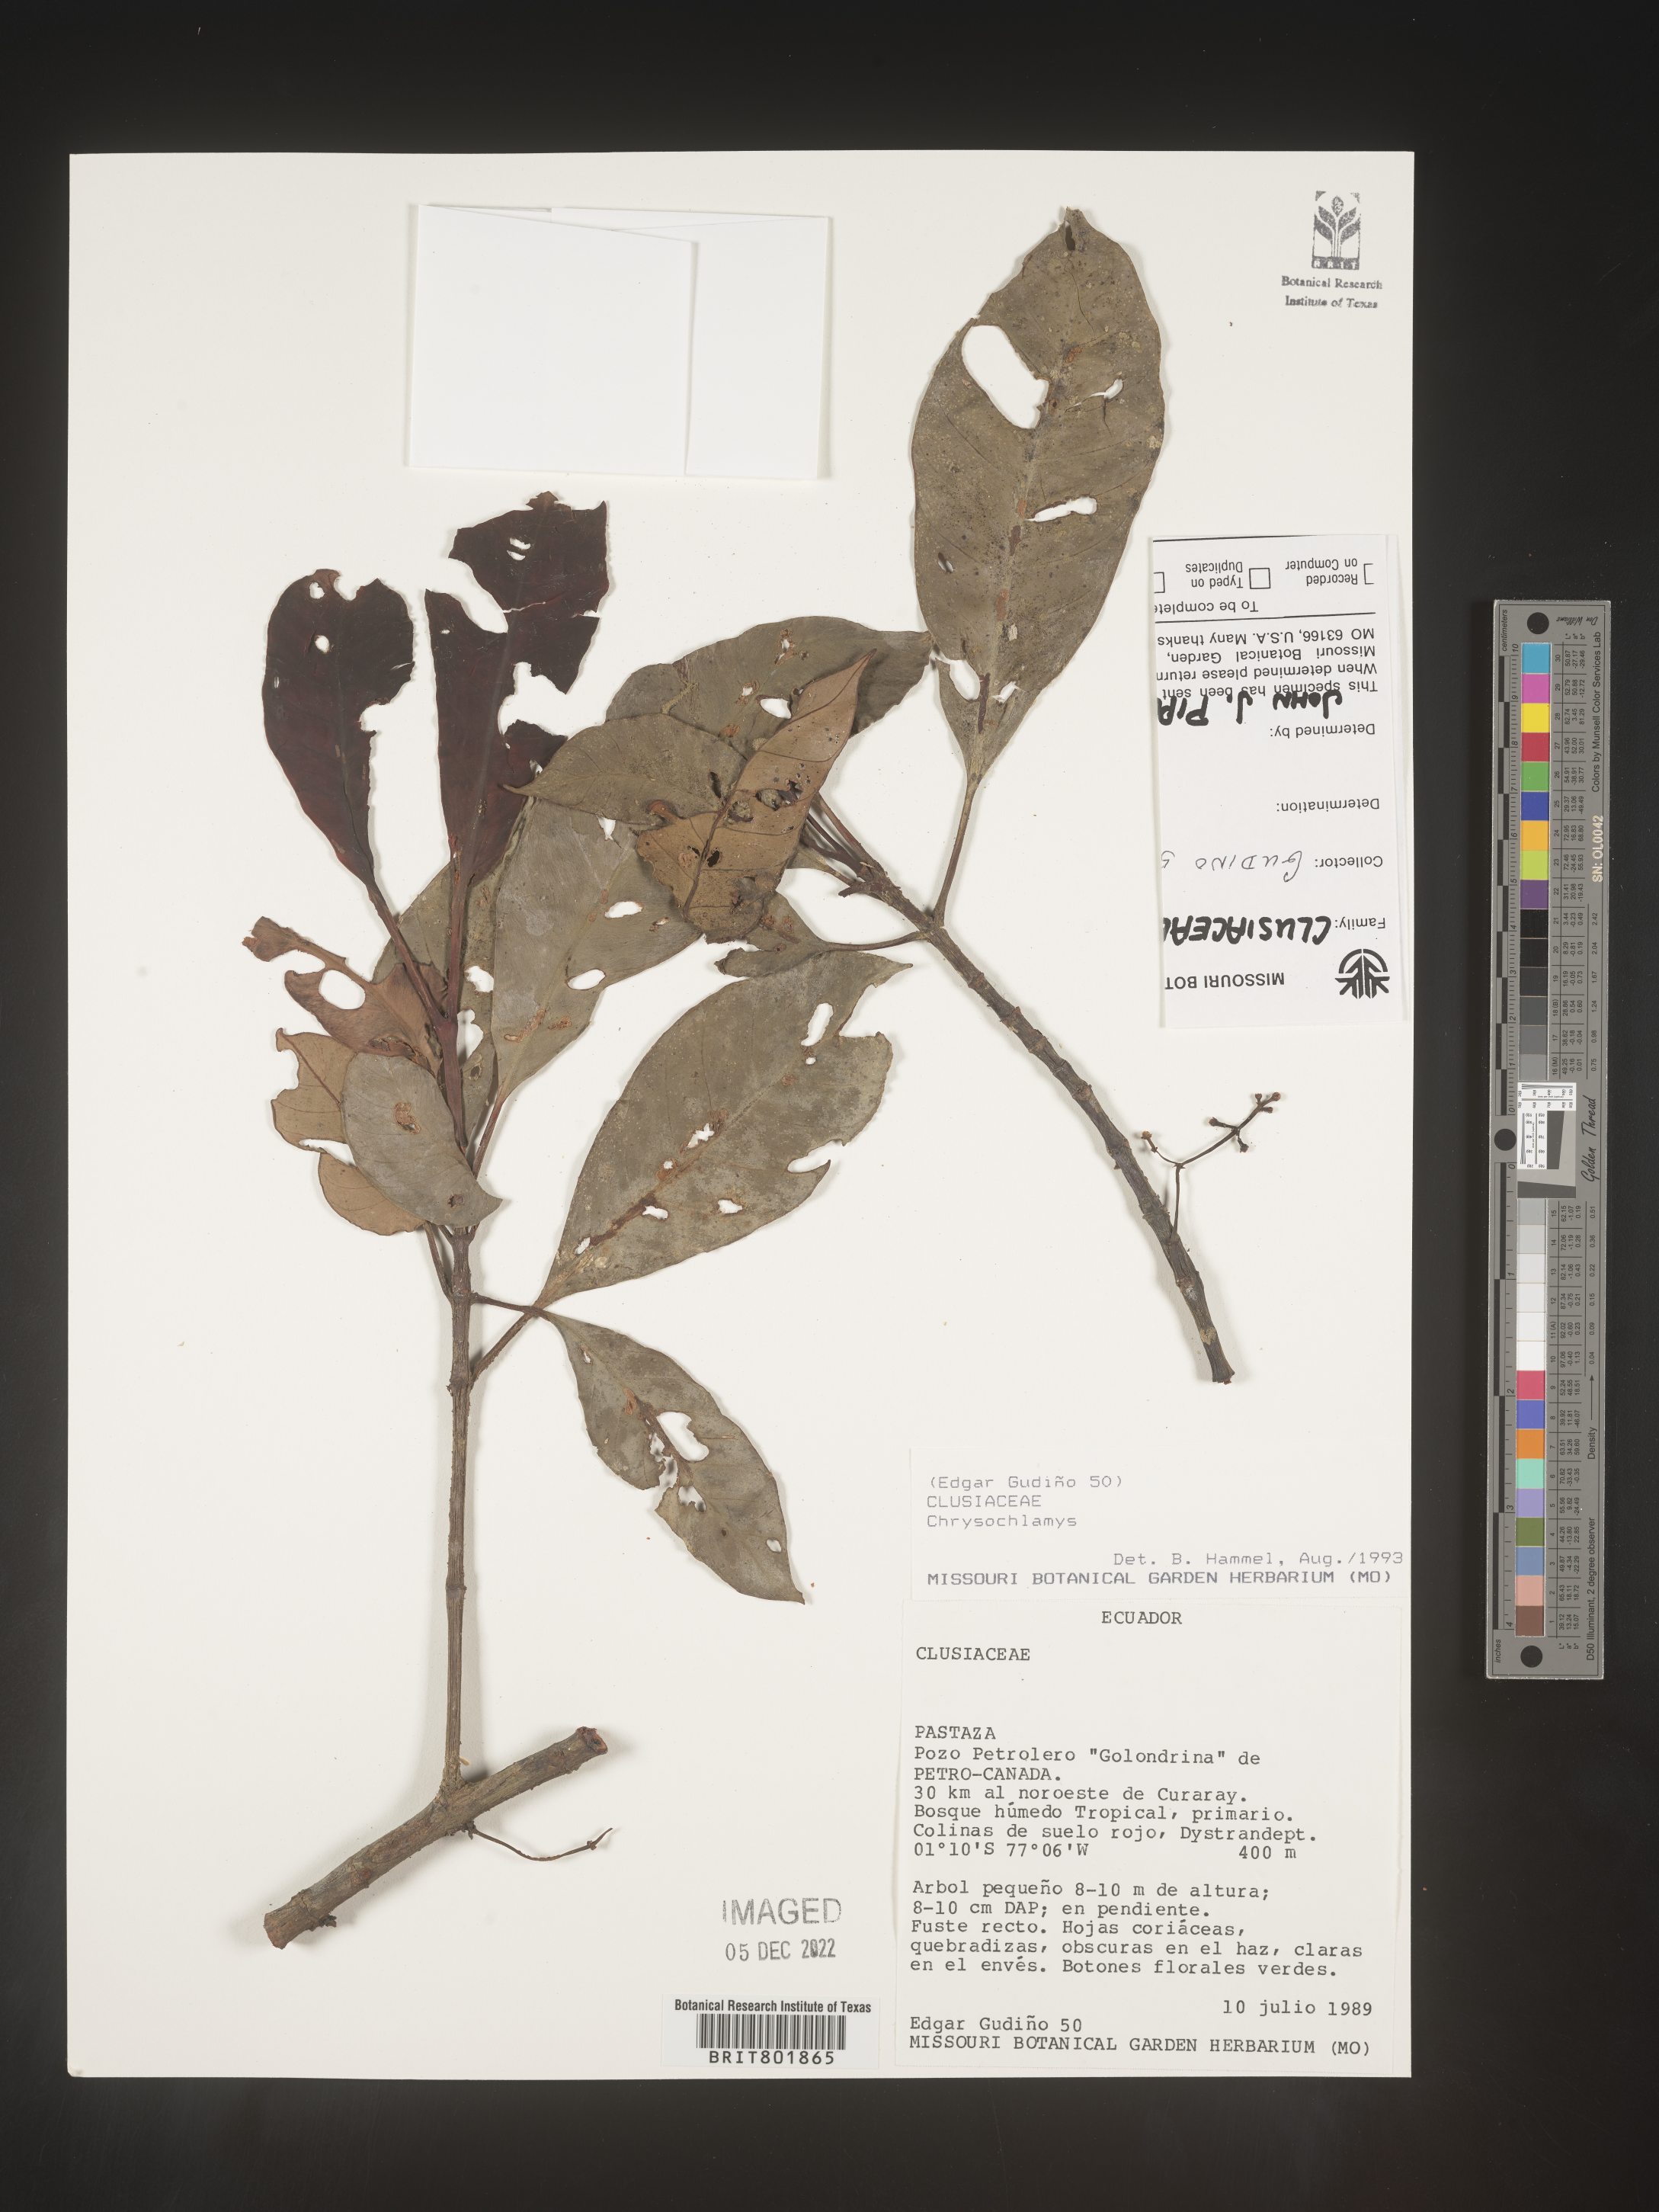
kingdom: Plantae
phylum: Tracheophyta
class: Magnoliopsida
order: Malpighiales
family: Clusiaceae
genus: Chrysochlamys
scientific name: Chrysochlamys
